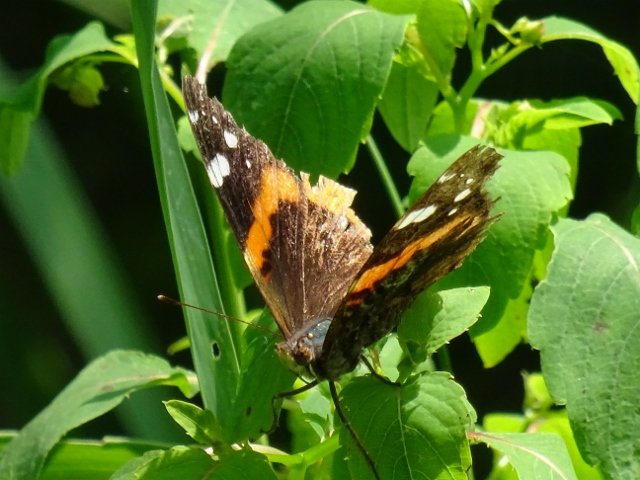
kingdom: Animalia
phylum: Arthropoda
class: Insecta
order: Lepidoptera
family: Nymphalidae
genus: Vanessa
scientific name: Vanessa atalanta
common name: Red Admiral
